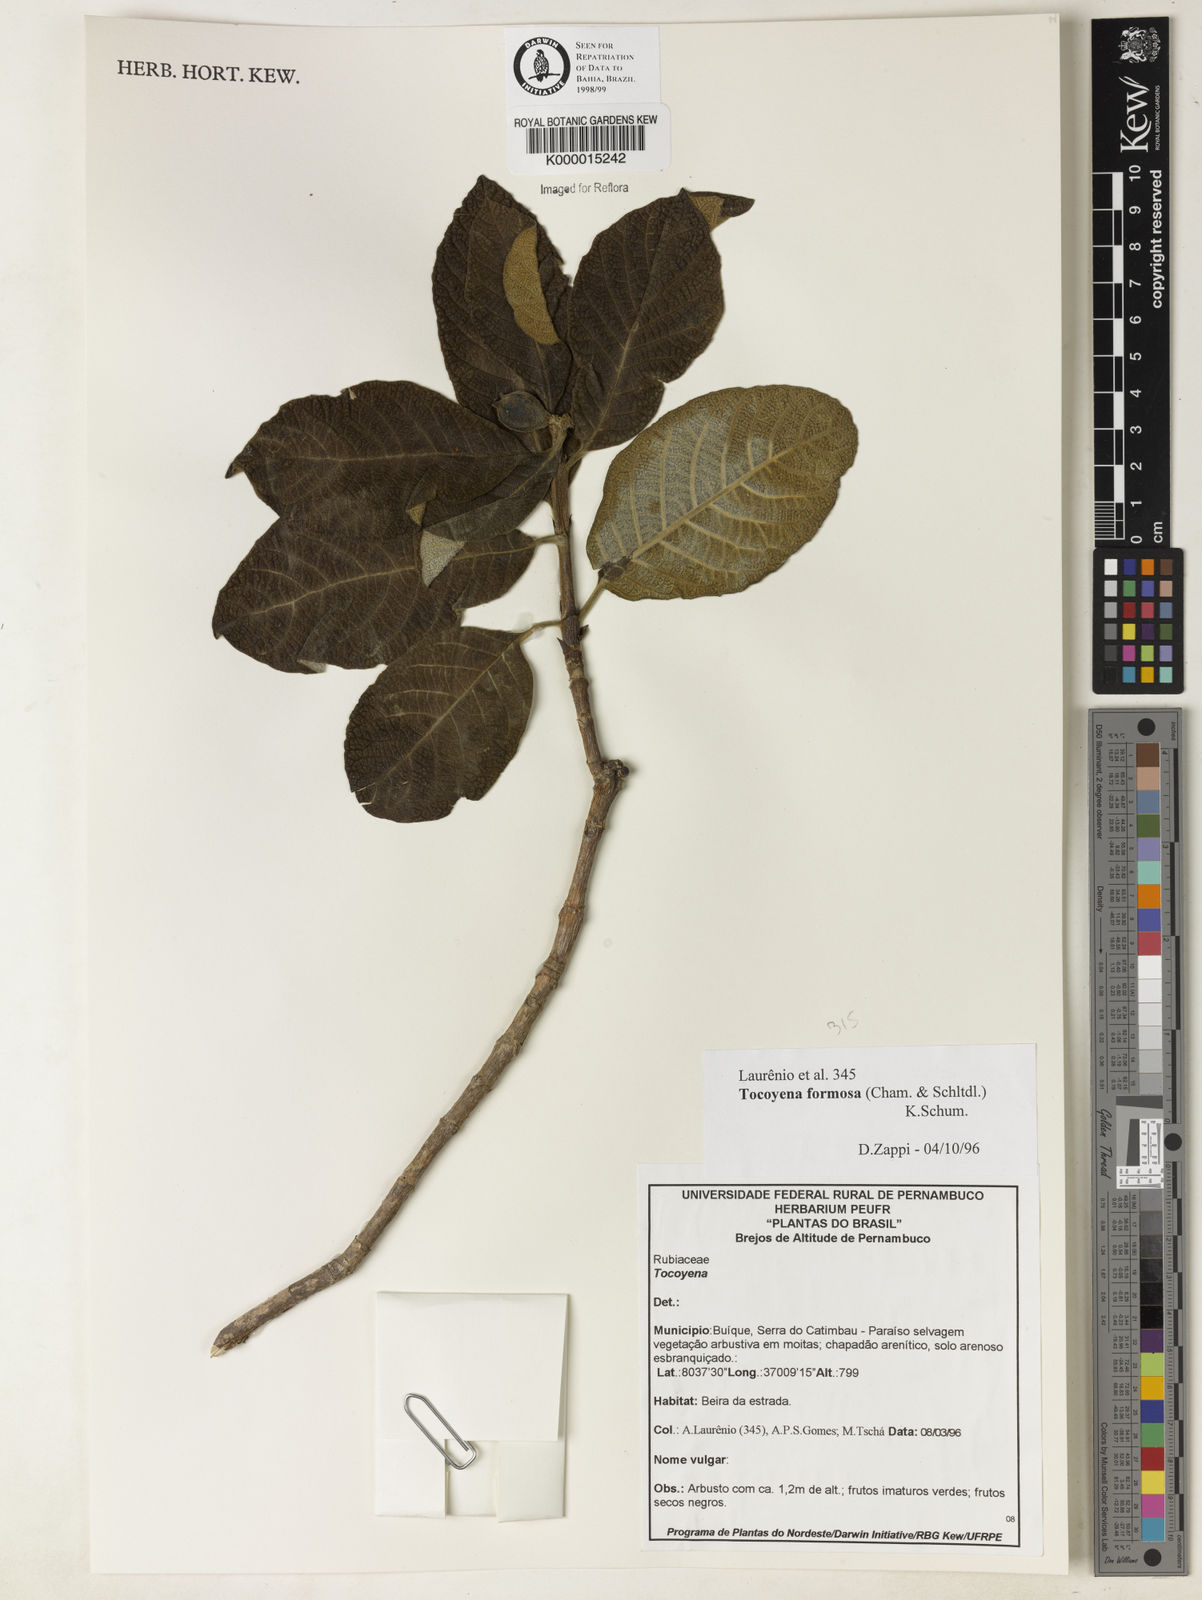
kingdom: Plantae
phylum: Tracheophyta
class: Magnoliopsida
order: Gentianales
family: Rubiaceae
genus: Tocoyena
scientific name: Tocoyena formosa
